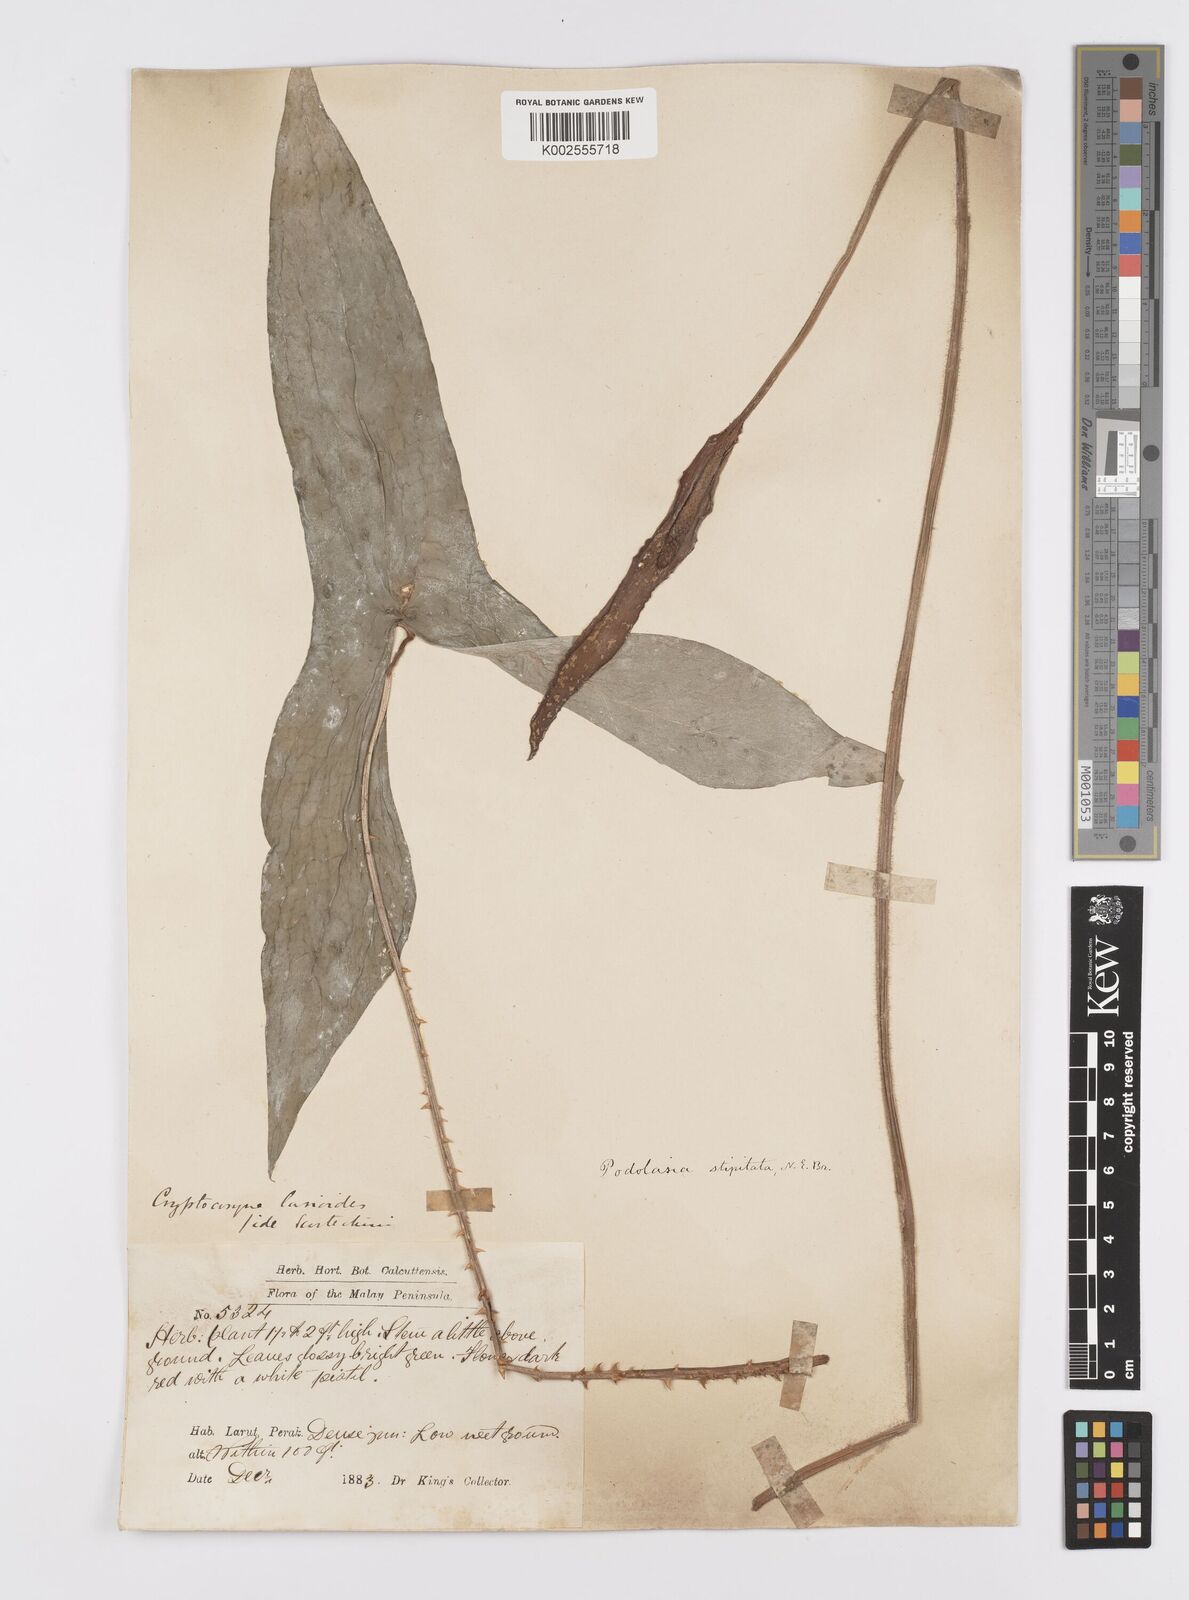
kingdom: Plantae
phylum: Tracheophyta
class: Liliopsida
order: Alismatales
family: Araceae
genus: Podolasia
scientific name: Podolasia stipitata
